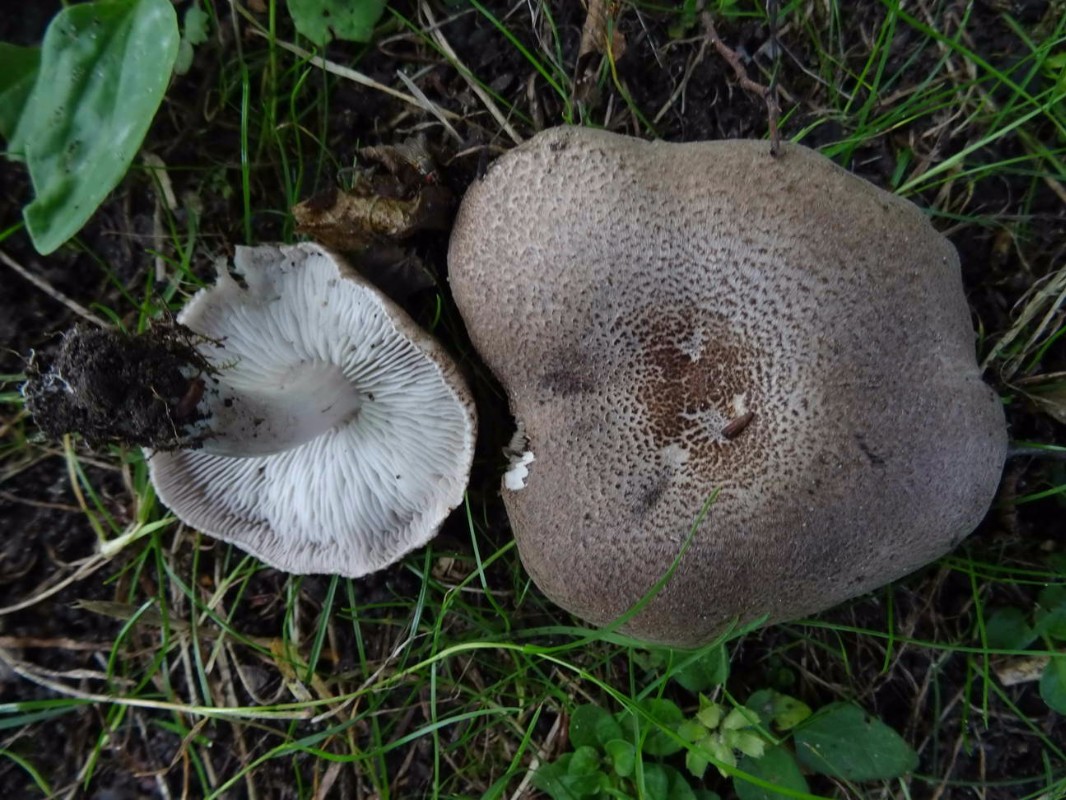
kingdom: Fungi
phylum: Basidiomycota
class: Agaricomycetes
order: Agaricales
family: Tricholomataceae
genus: Tricholoma
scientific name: Tricholoma scalpturatum
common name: gulplettet ridderhat
